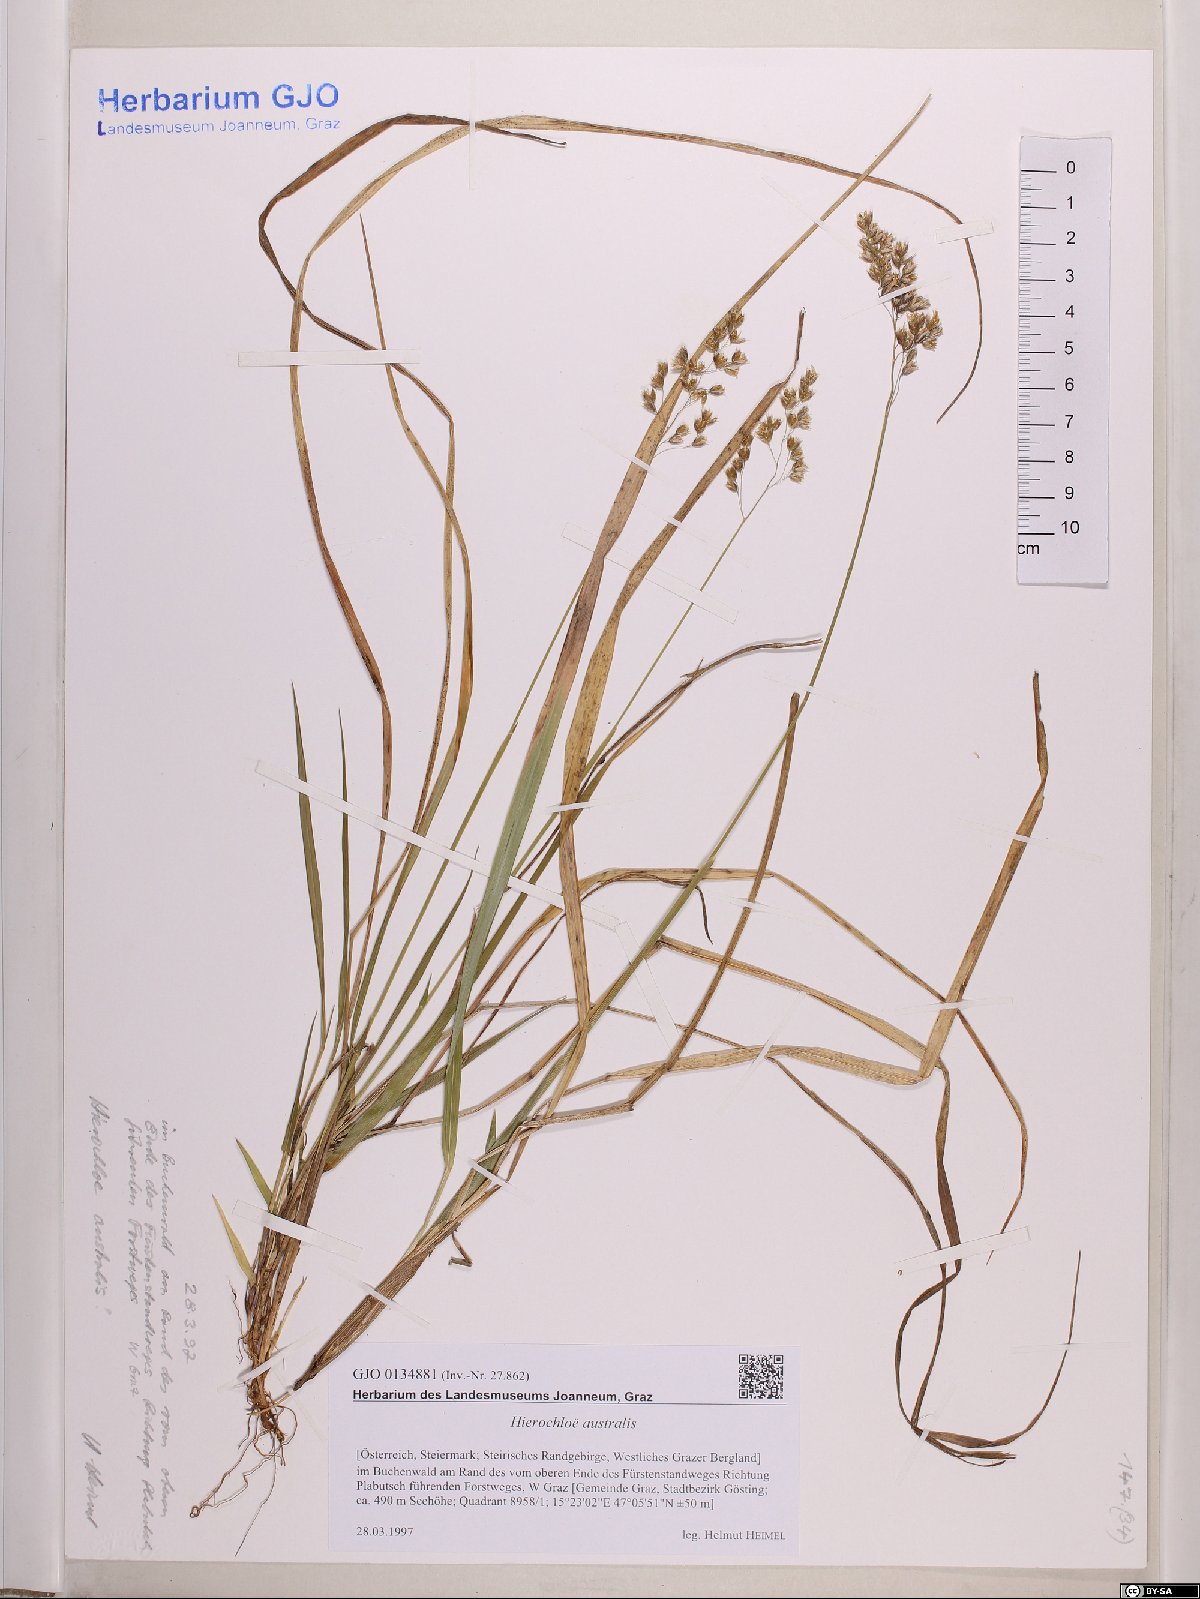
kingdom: Plantae
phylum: Tracheophyta
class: Liliopsida
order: Poales
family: Poaceae
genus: Anthoxanthum
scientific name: Anthoxanthum australe
